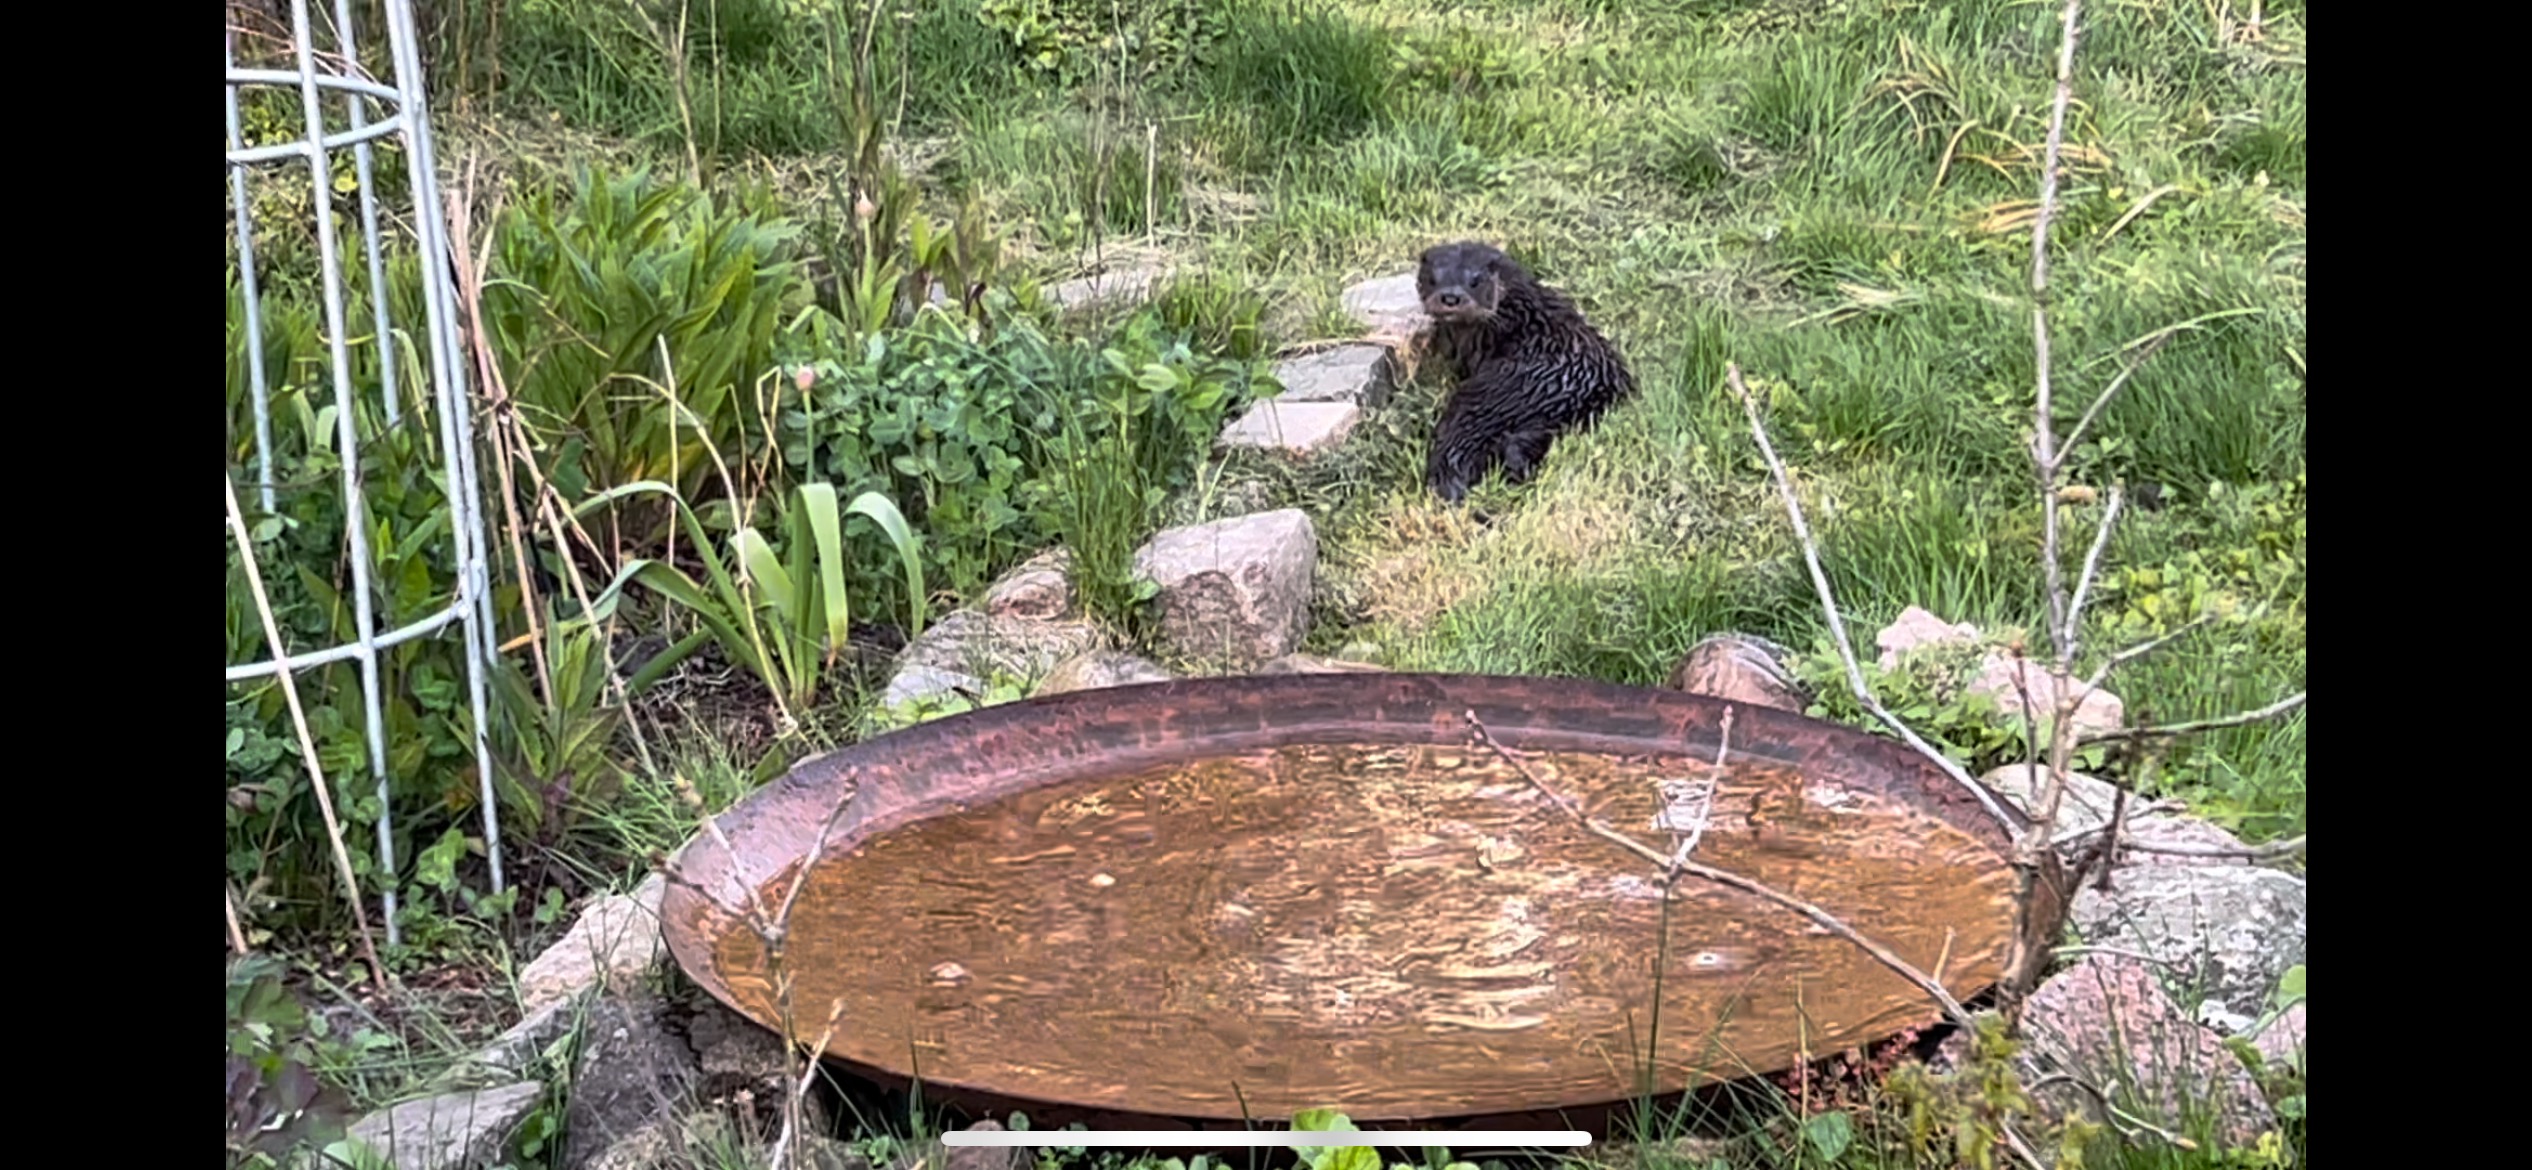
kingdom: Animalia
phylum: Chordata
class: Mammalia
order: Carnivora
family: Mustelidae
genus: Lutra
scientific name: Lutra lutra
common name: Odder
